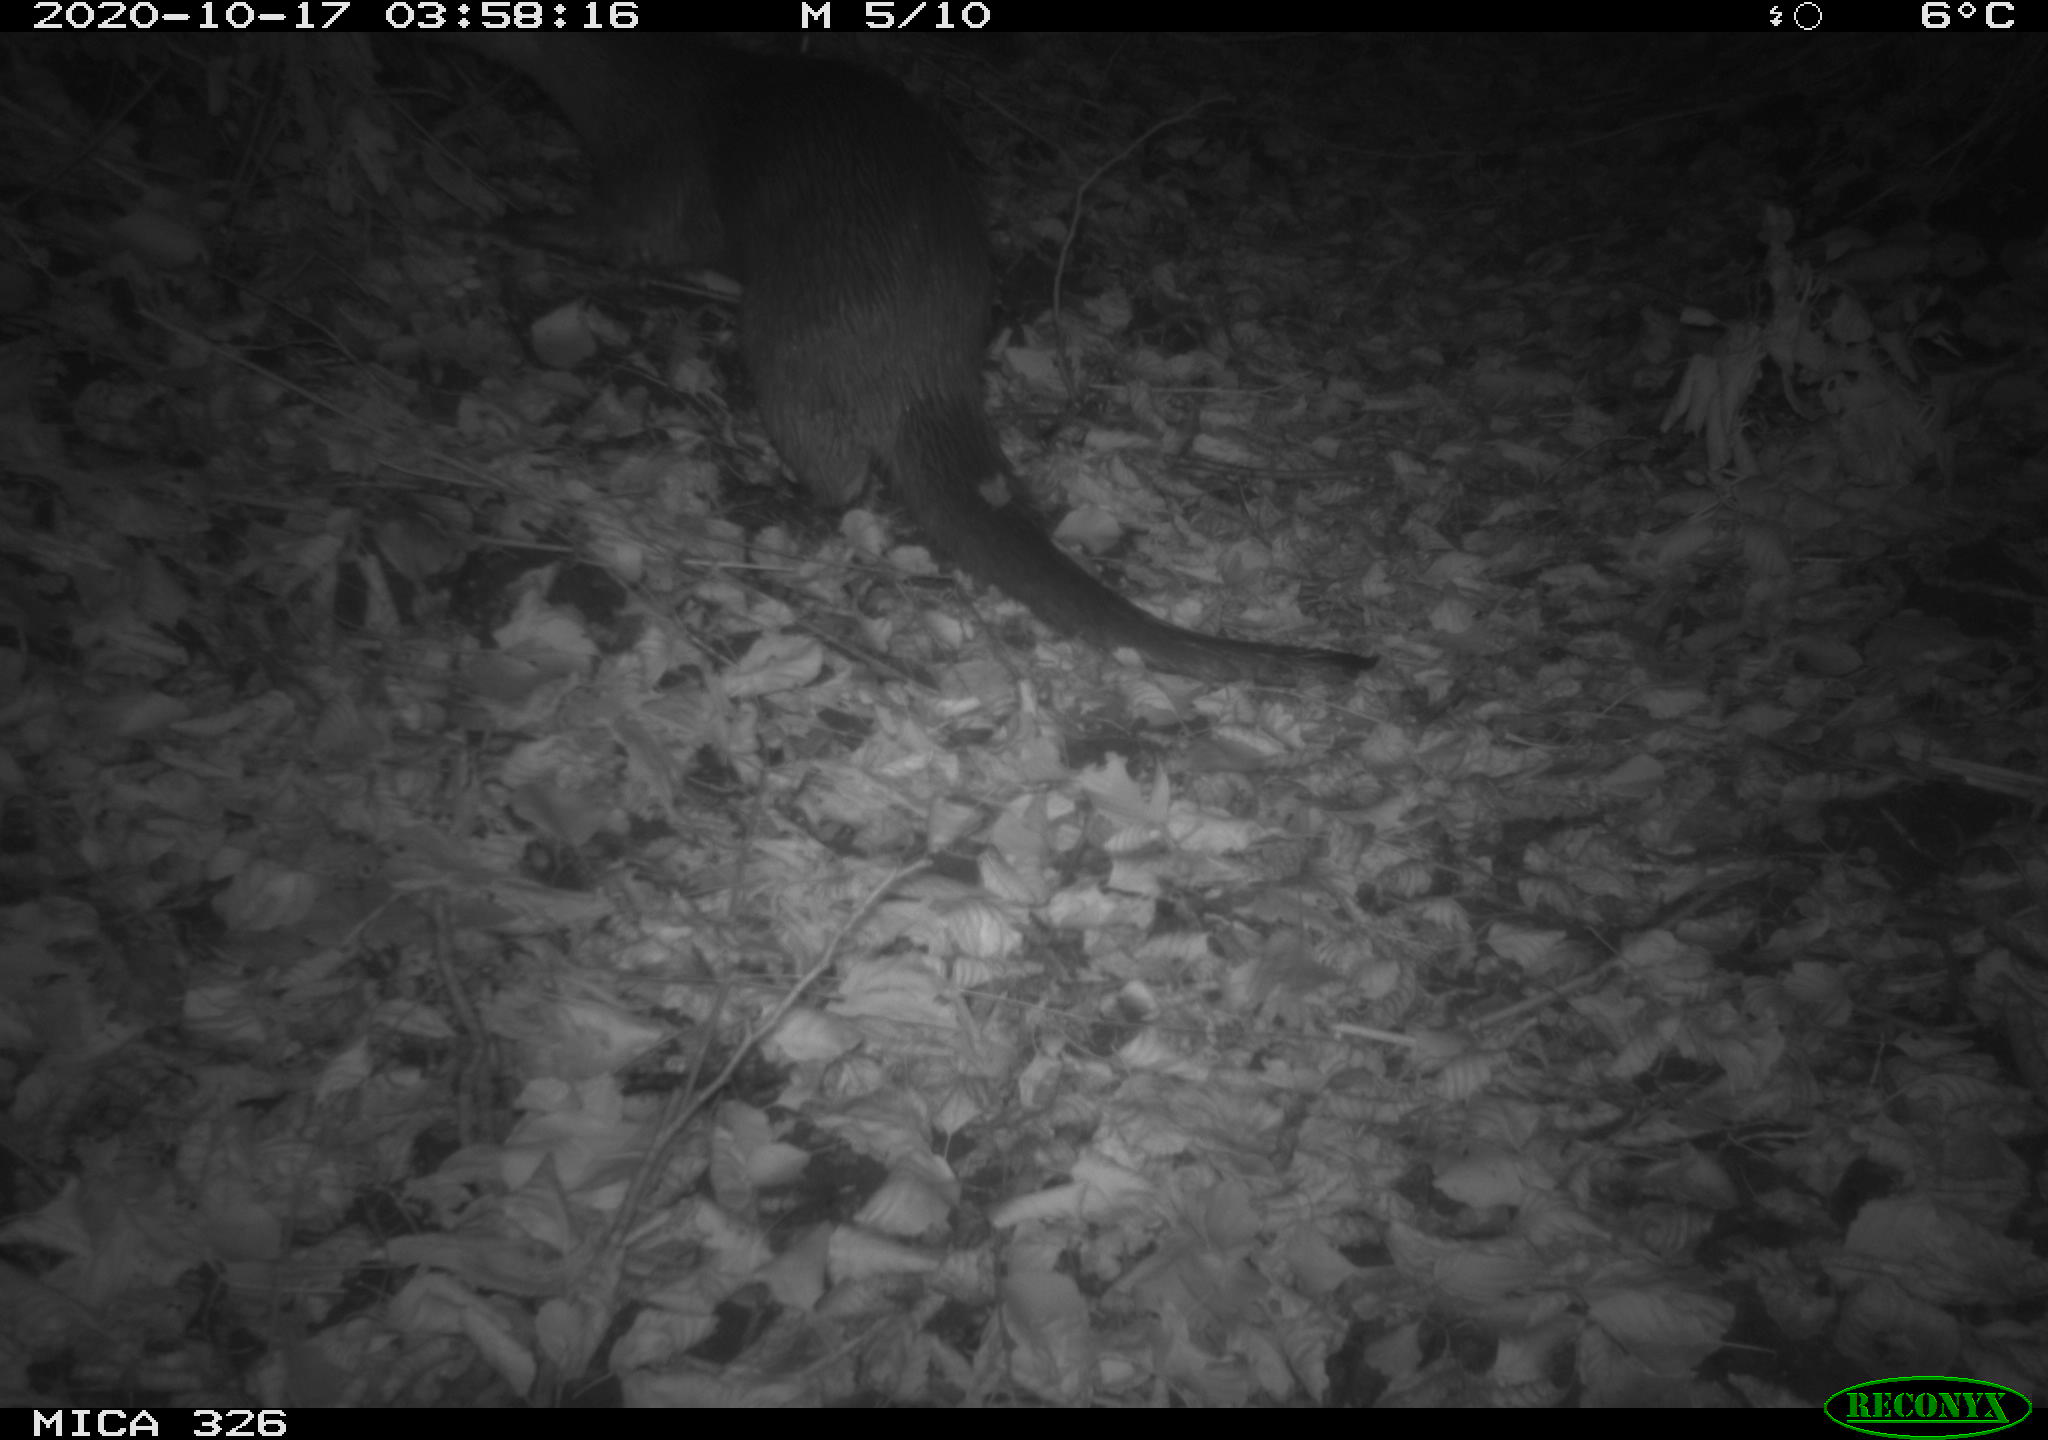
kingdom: Animalia
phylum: Chordata
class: Mammalia
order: Carnivora
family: Mustelidae
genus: Lutra
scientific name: Lutra lutra
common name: European otter
